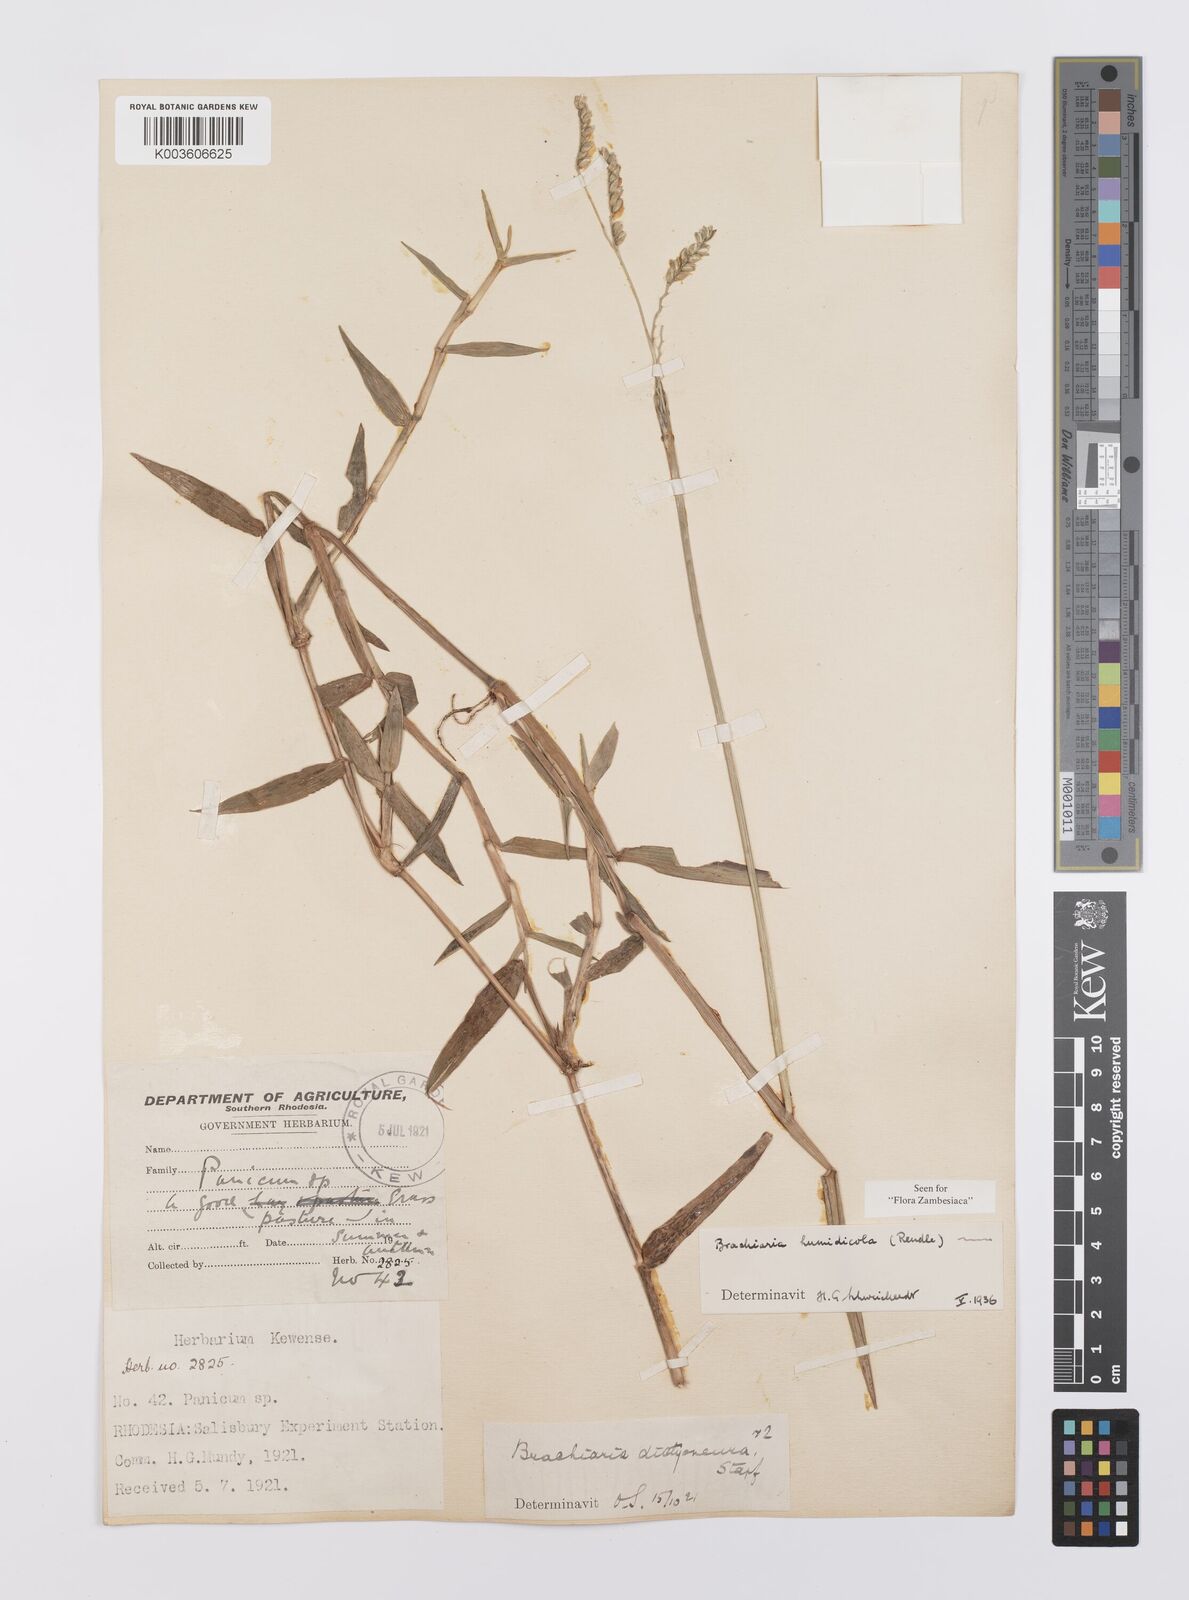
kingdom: Plantae
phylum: Tracheophyta
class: Liliopsida
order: Poales
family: Poaceae
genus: Urochloa
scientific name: Urochloa dictyoneura
